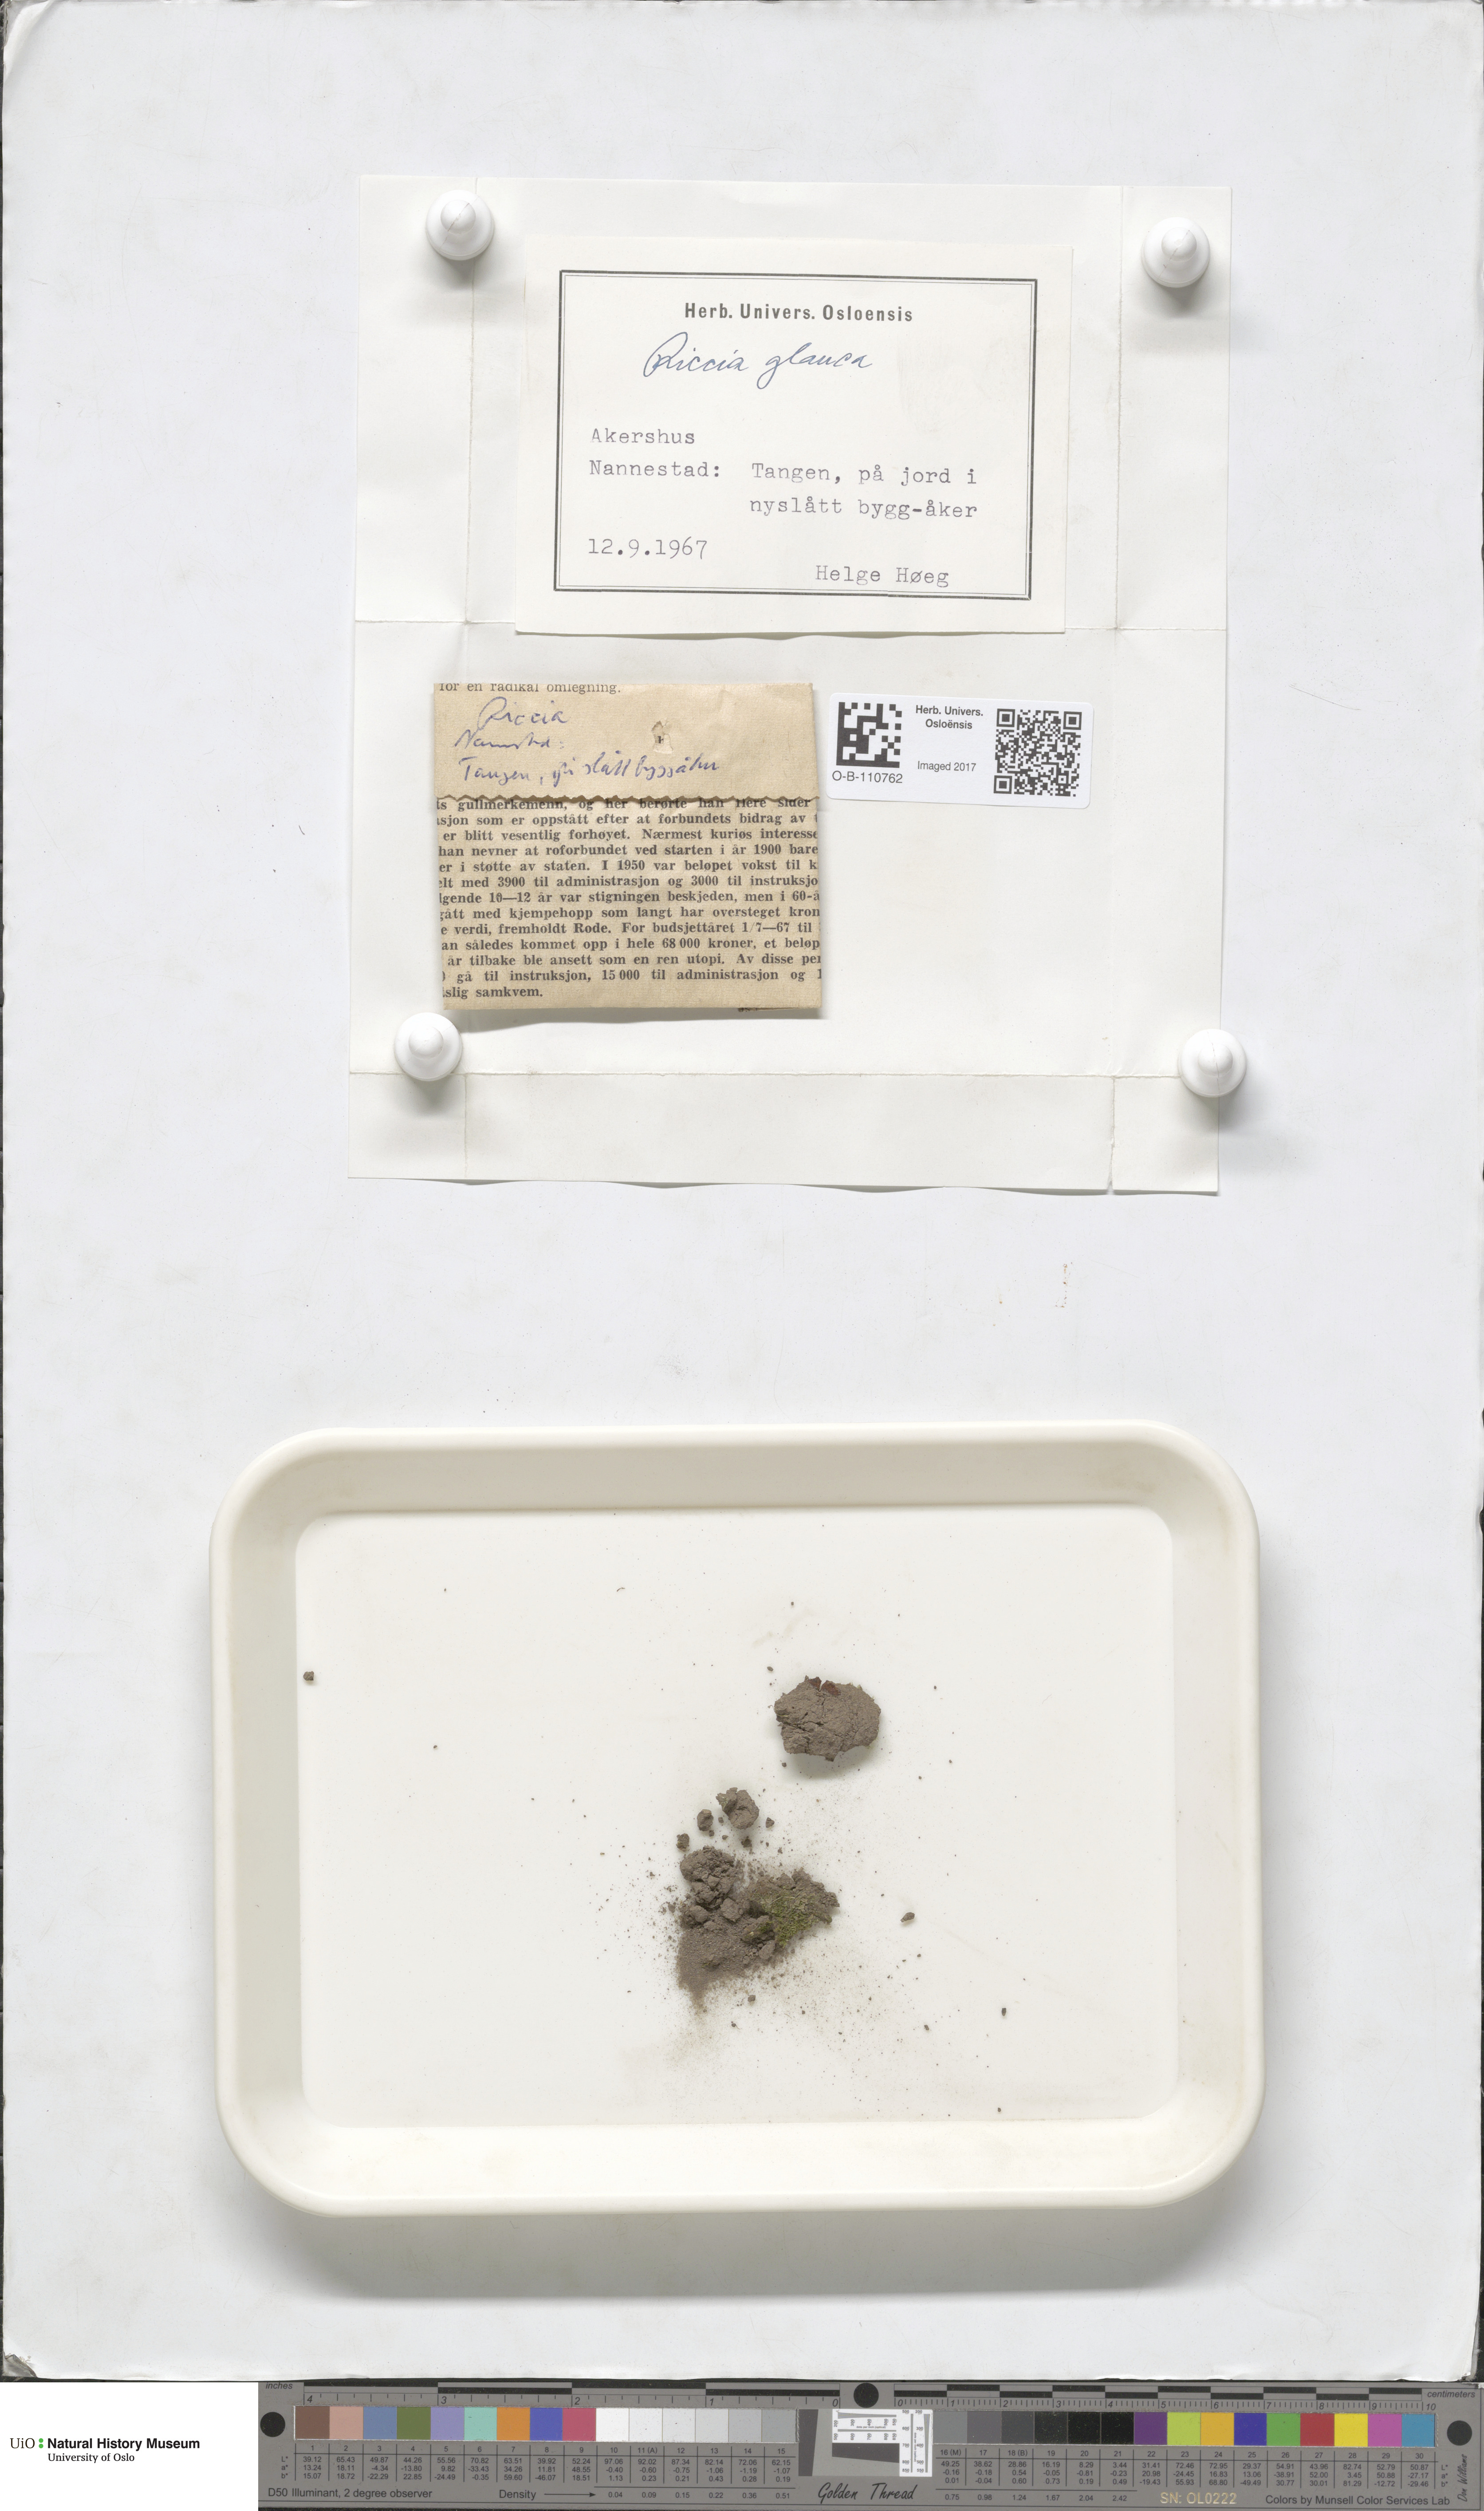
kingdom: Plantae
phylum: Marchantiophyta
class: Marchantiopsida
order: Marchantiales
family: Ricciaceae
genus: Riccia
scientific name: Riccia glauca
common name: Glaucous crystalwort
